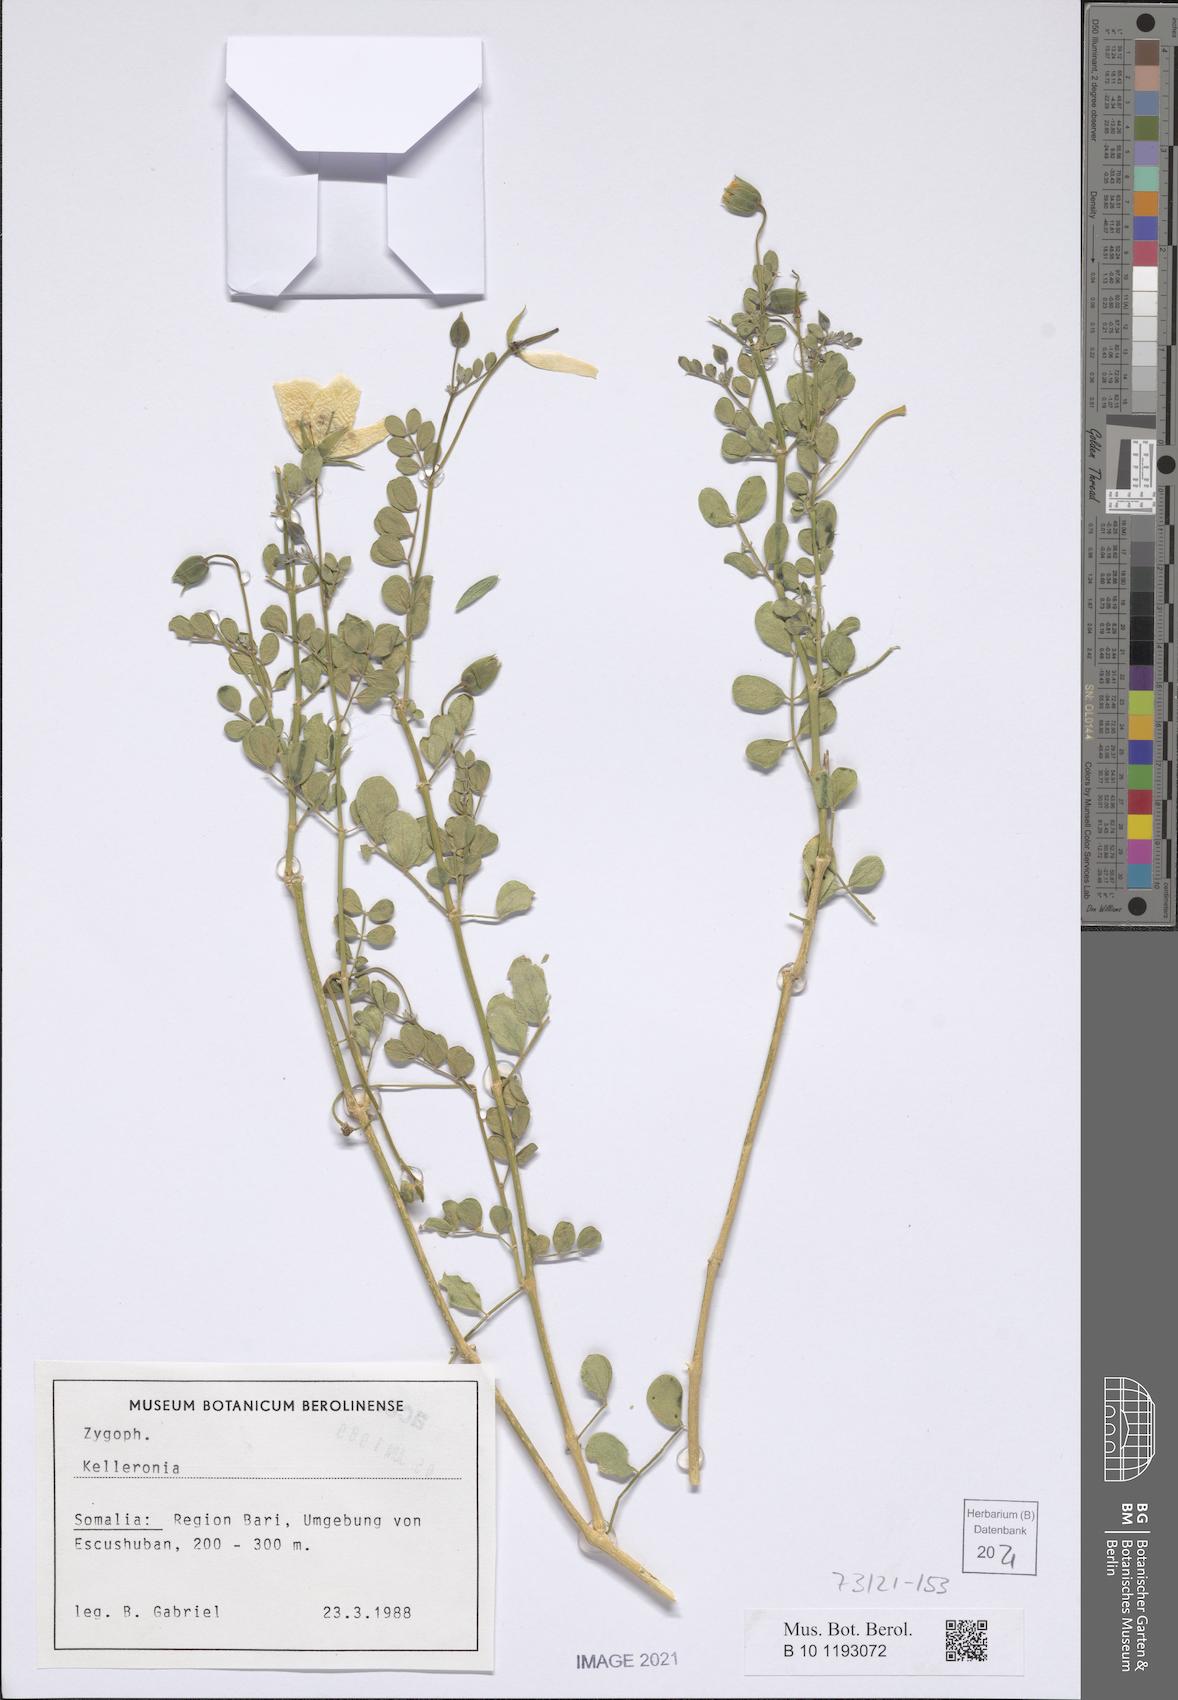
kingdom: Plantae
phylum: Tracheophyta
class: Magnoliopsida
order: Zygophyllales
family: Zygophyllaceae
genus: Kelleronia
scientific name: Kelleronia
